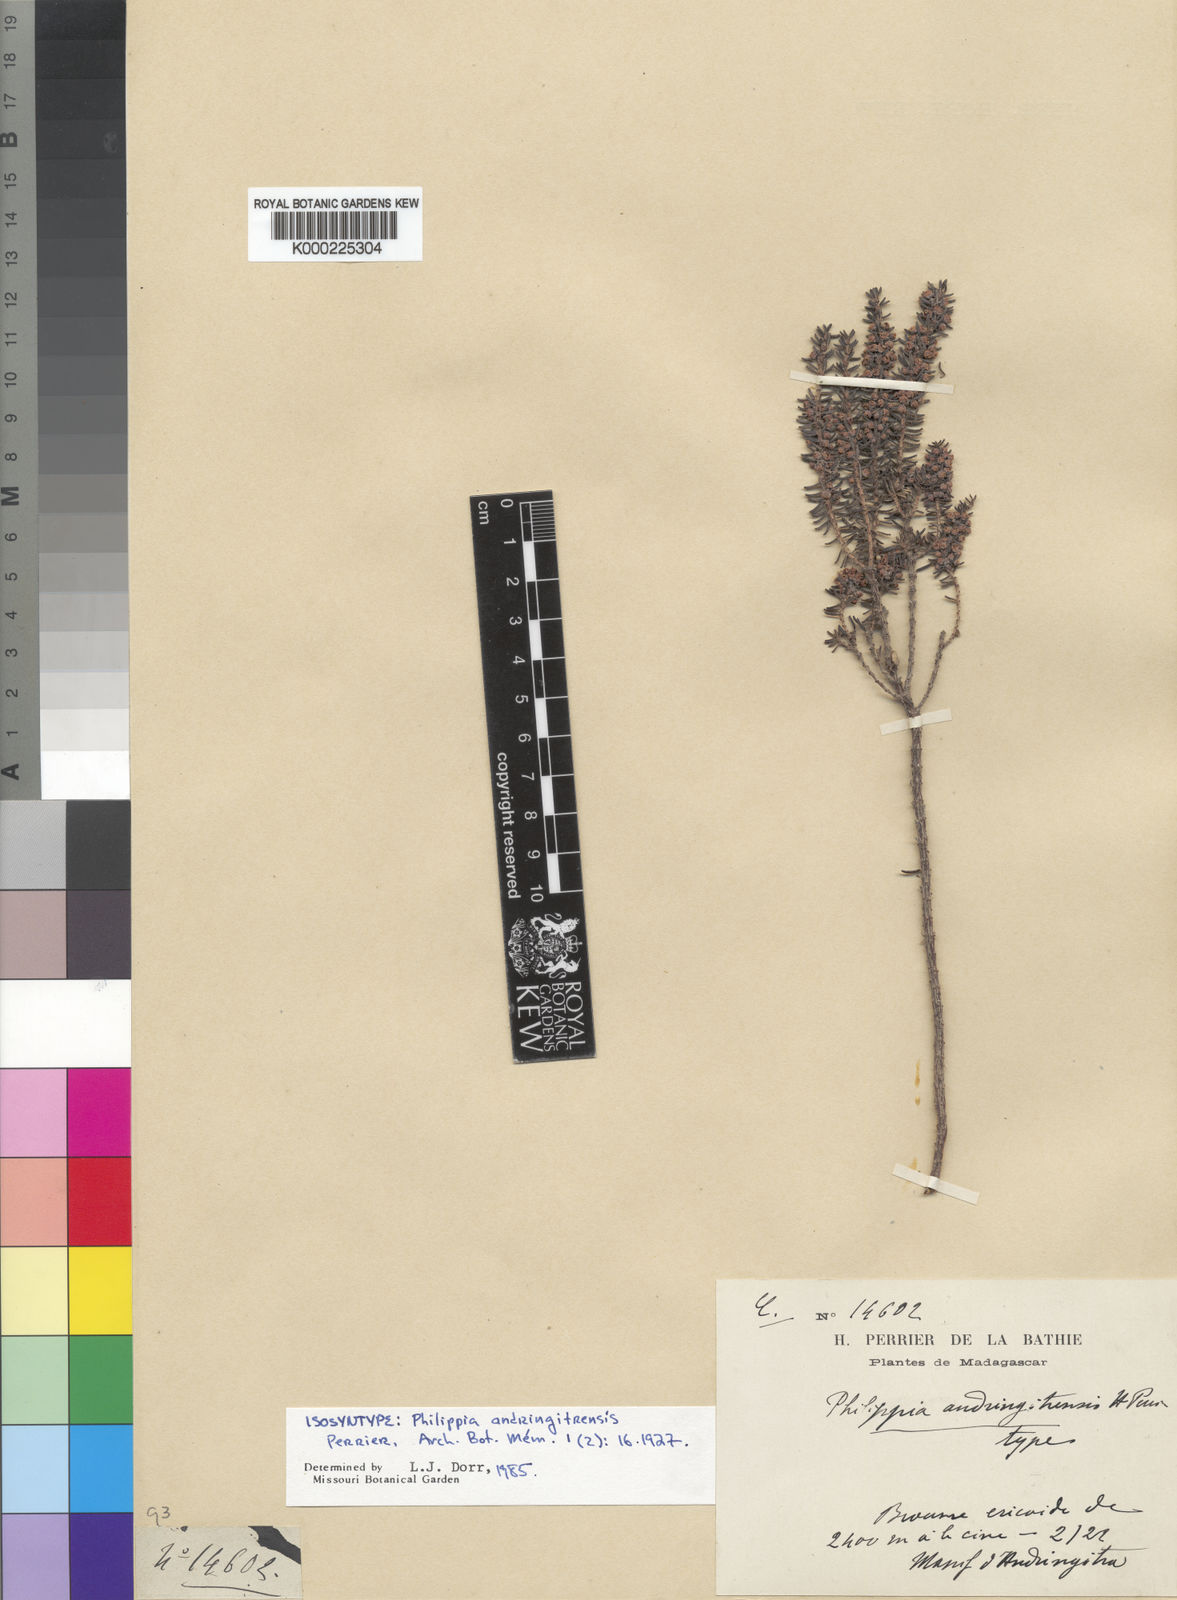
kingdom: Plantae
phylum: Tracheophyta
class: Magnoliopsida
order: Ericales
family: Ericaceae
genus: Erica
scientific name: Erica andringitrensis
